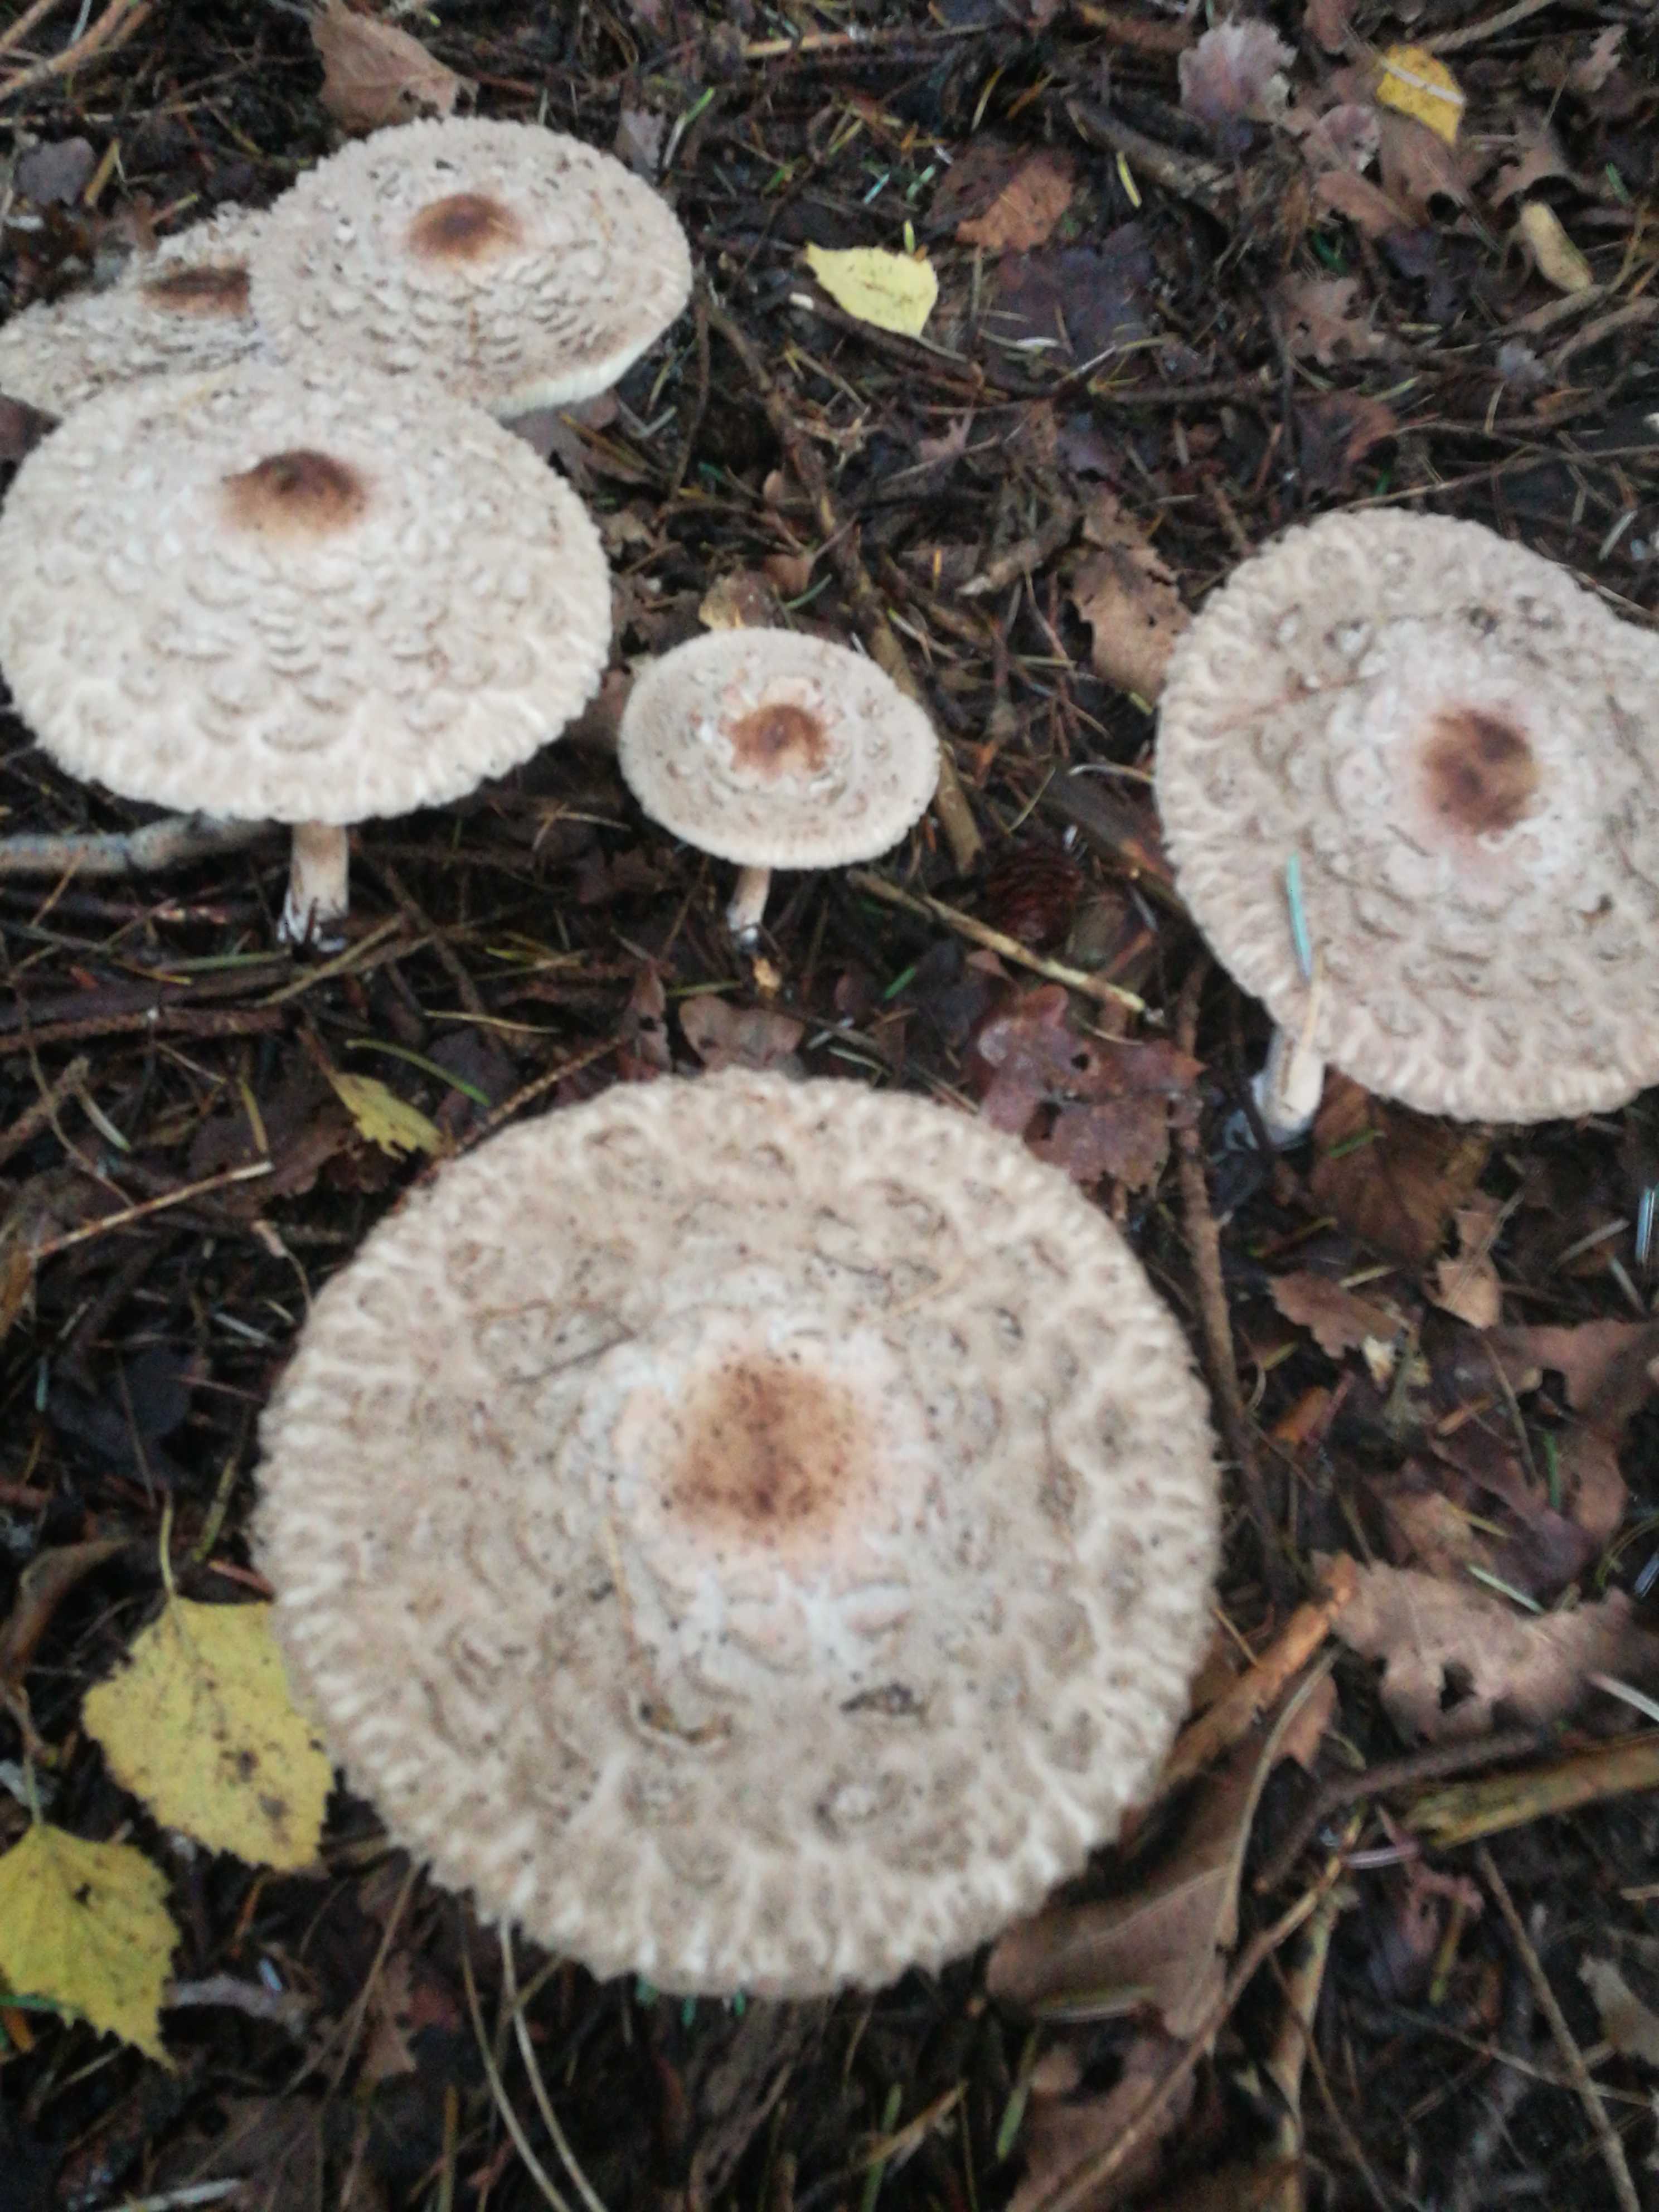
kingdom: Fungi
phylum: Basidiomycota
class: Agaricomycetes
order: Agaricales
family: Agaricaceae
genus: Chlorophyllum
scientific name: Chlorophyllum olivieri
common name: almindelig rabarberhat
